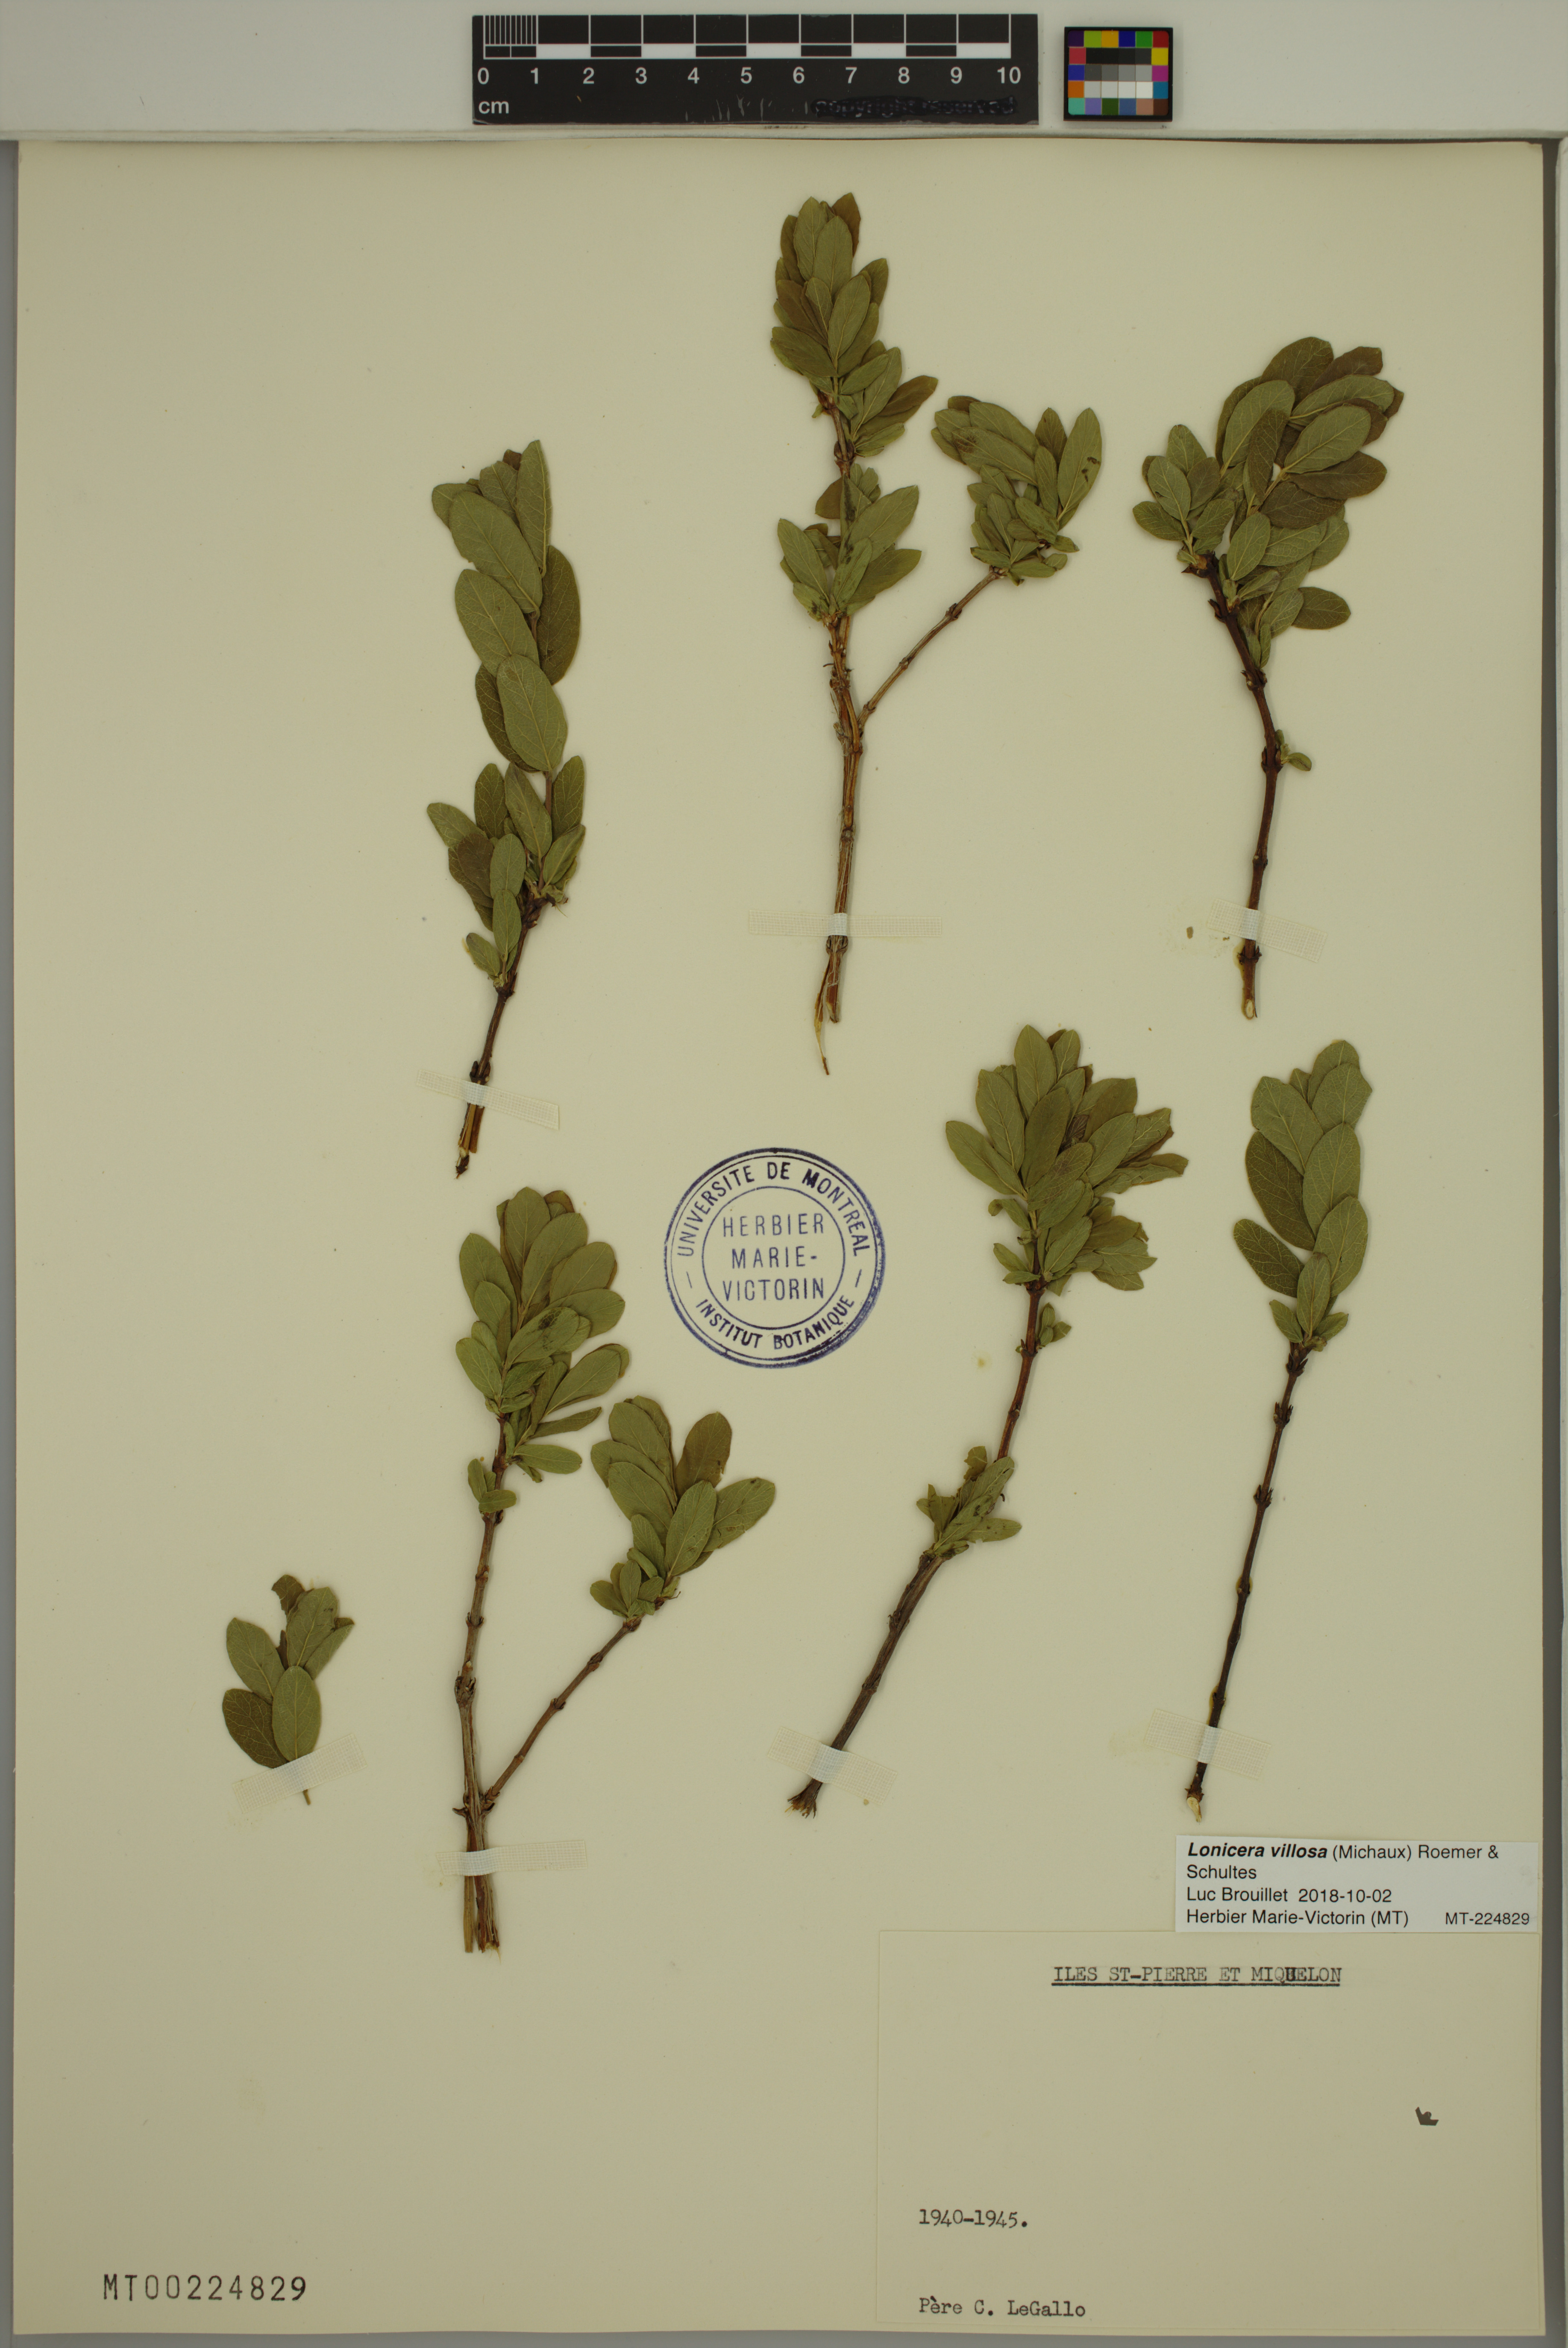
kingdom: Plantae
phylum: Tracheophyta
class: Magnoliopsida
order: Dipsacales
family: Caprifoliaceae
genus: Lonicera
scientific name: Lonicera villosa
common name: Mountain fly-honeysuckle
